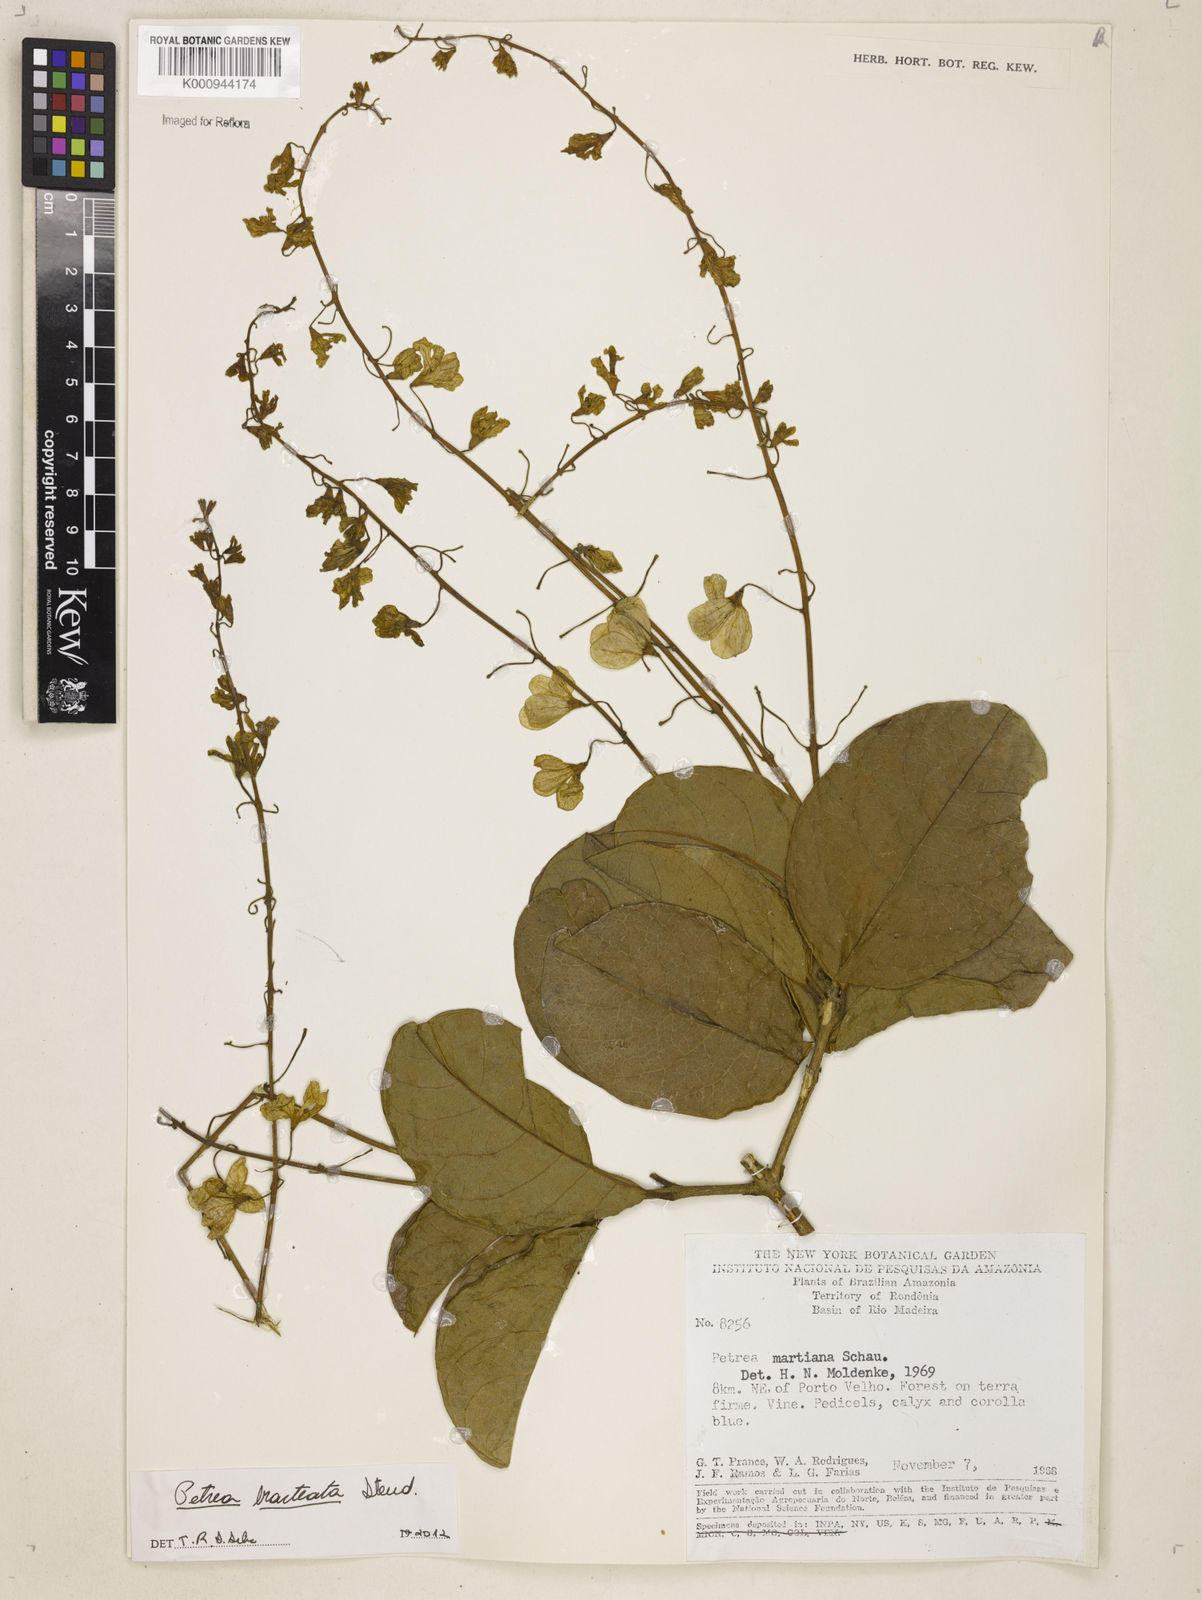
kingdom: Plantae
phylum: Tracheophyta
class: Magnoliopsida
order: Lamiales
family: Verbenaceae
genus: Petrea
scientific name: Petrea bracteata
